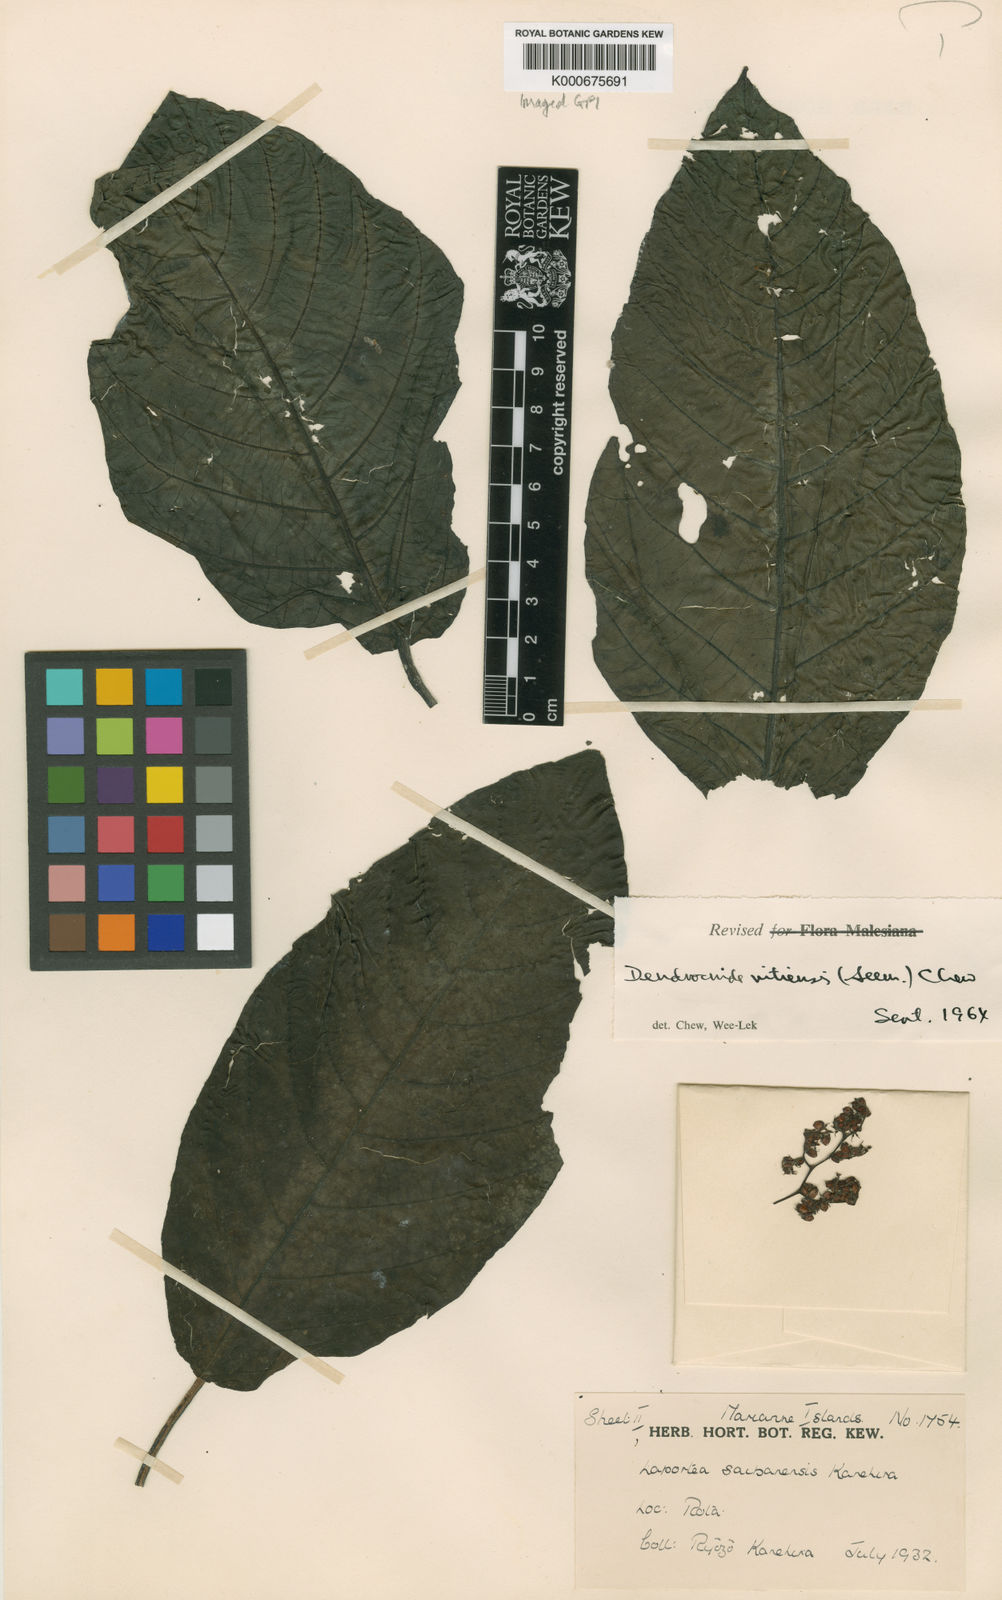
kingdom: Plantae
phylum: Tracheophyta
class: Magnoliopsida
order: Rosales
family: Urticaceae
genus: Dendrocnide
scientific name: Dendrocnide latifolia
